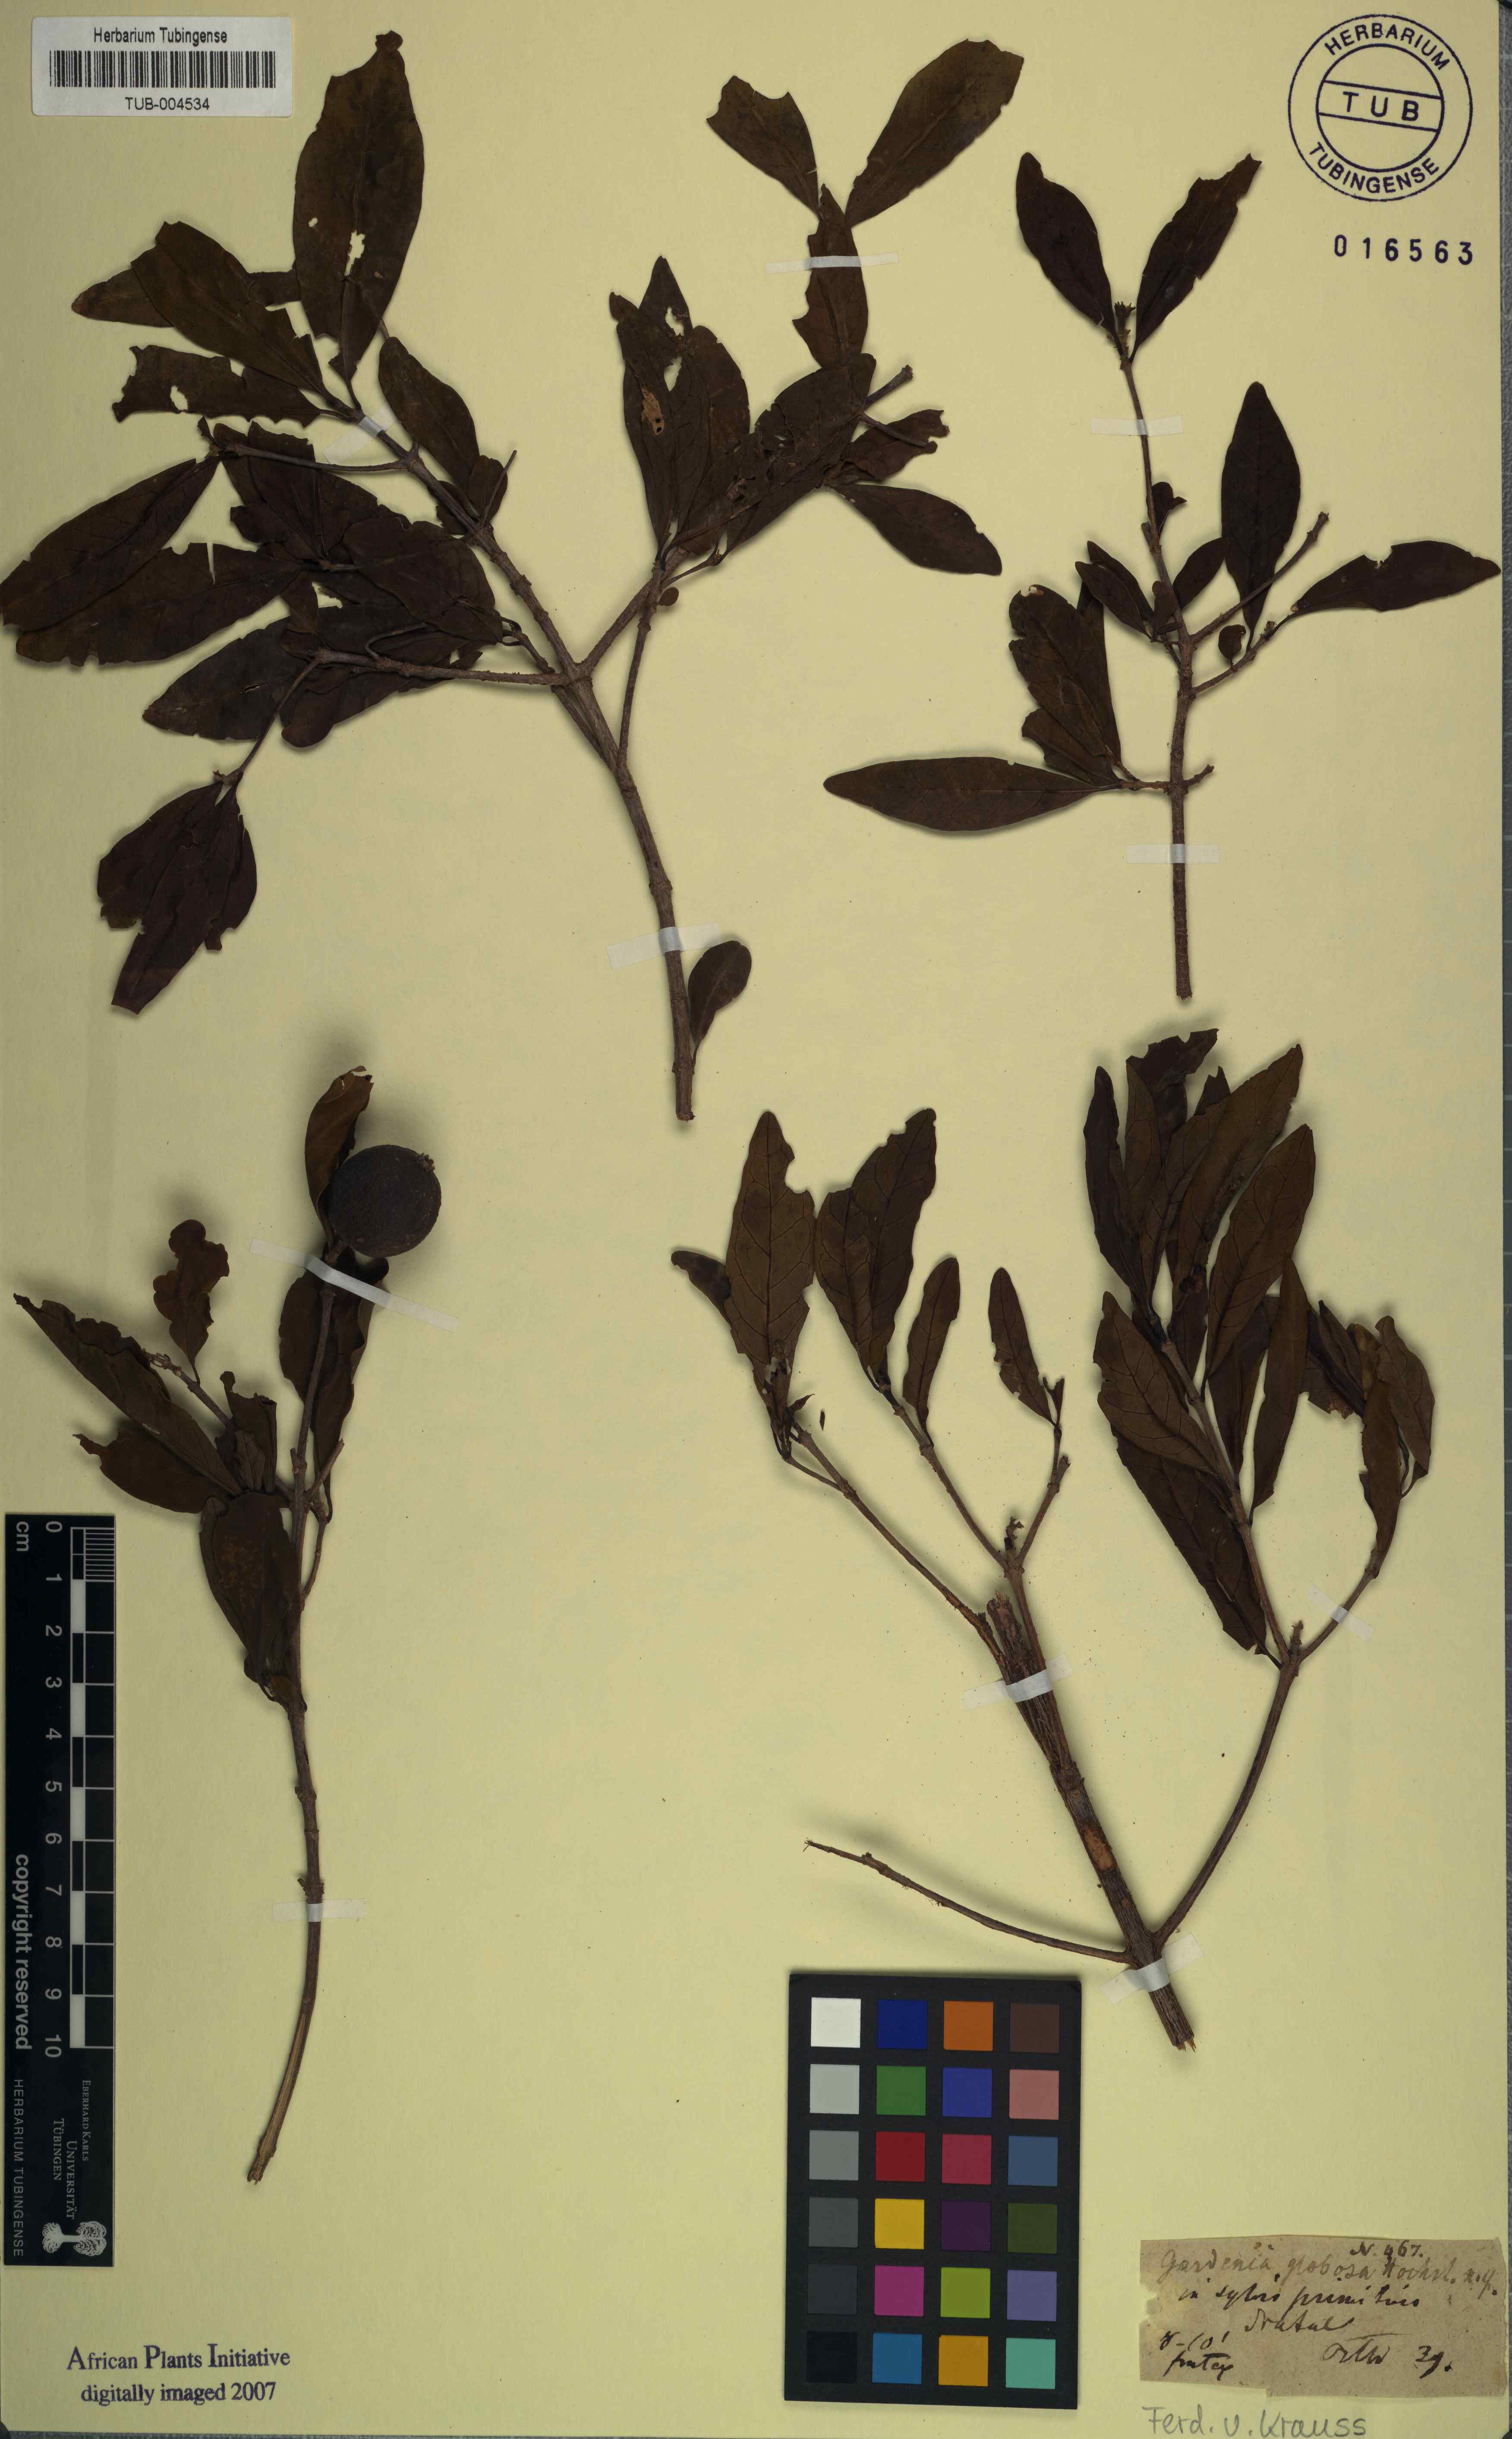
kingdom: Plantae
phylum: Tracheophyta
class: Magnoliopsida
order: Gentianales
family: Rubiaceae
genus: Rothmannia
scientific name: Rothmannia globosa
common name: September bells
